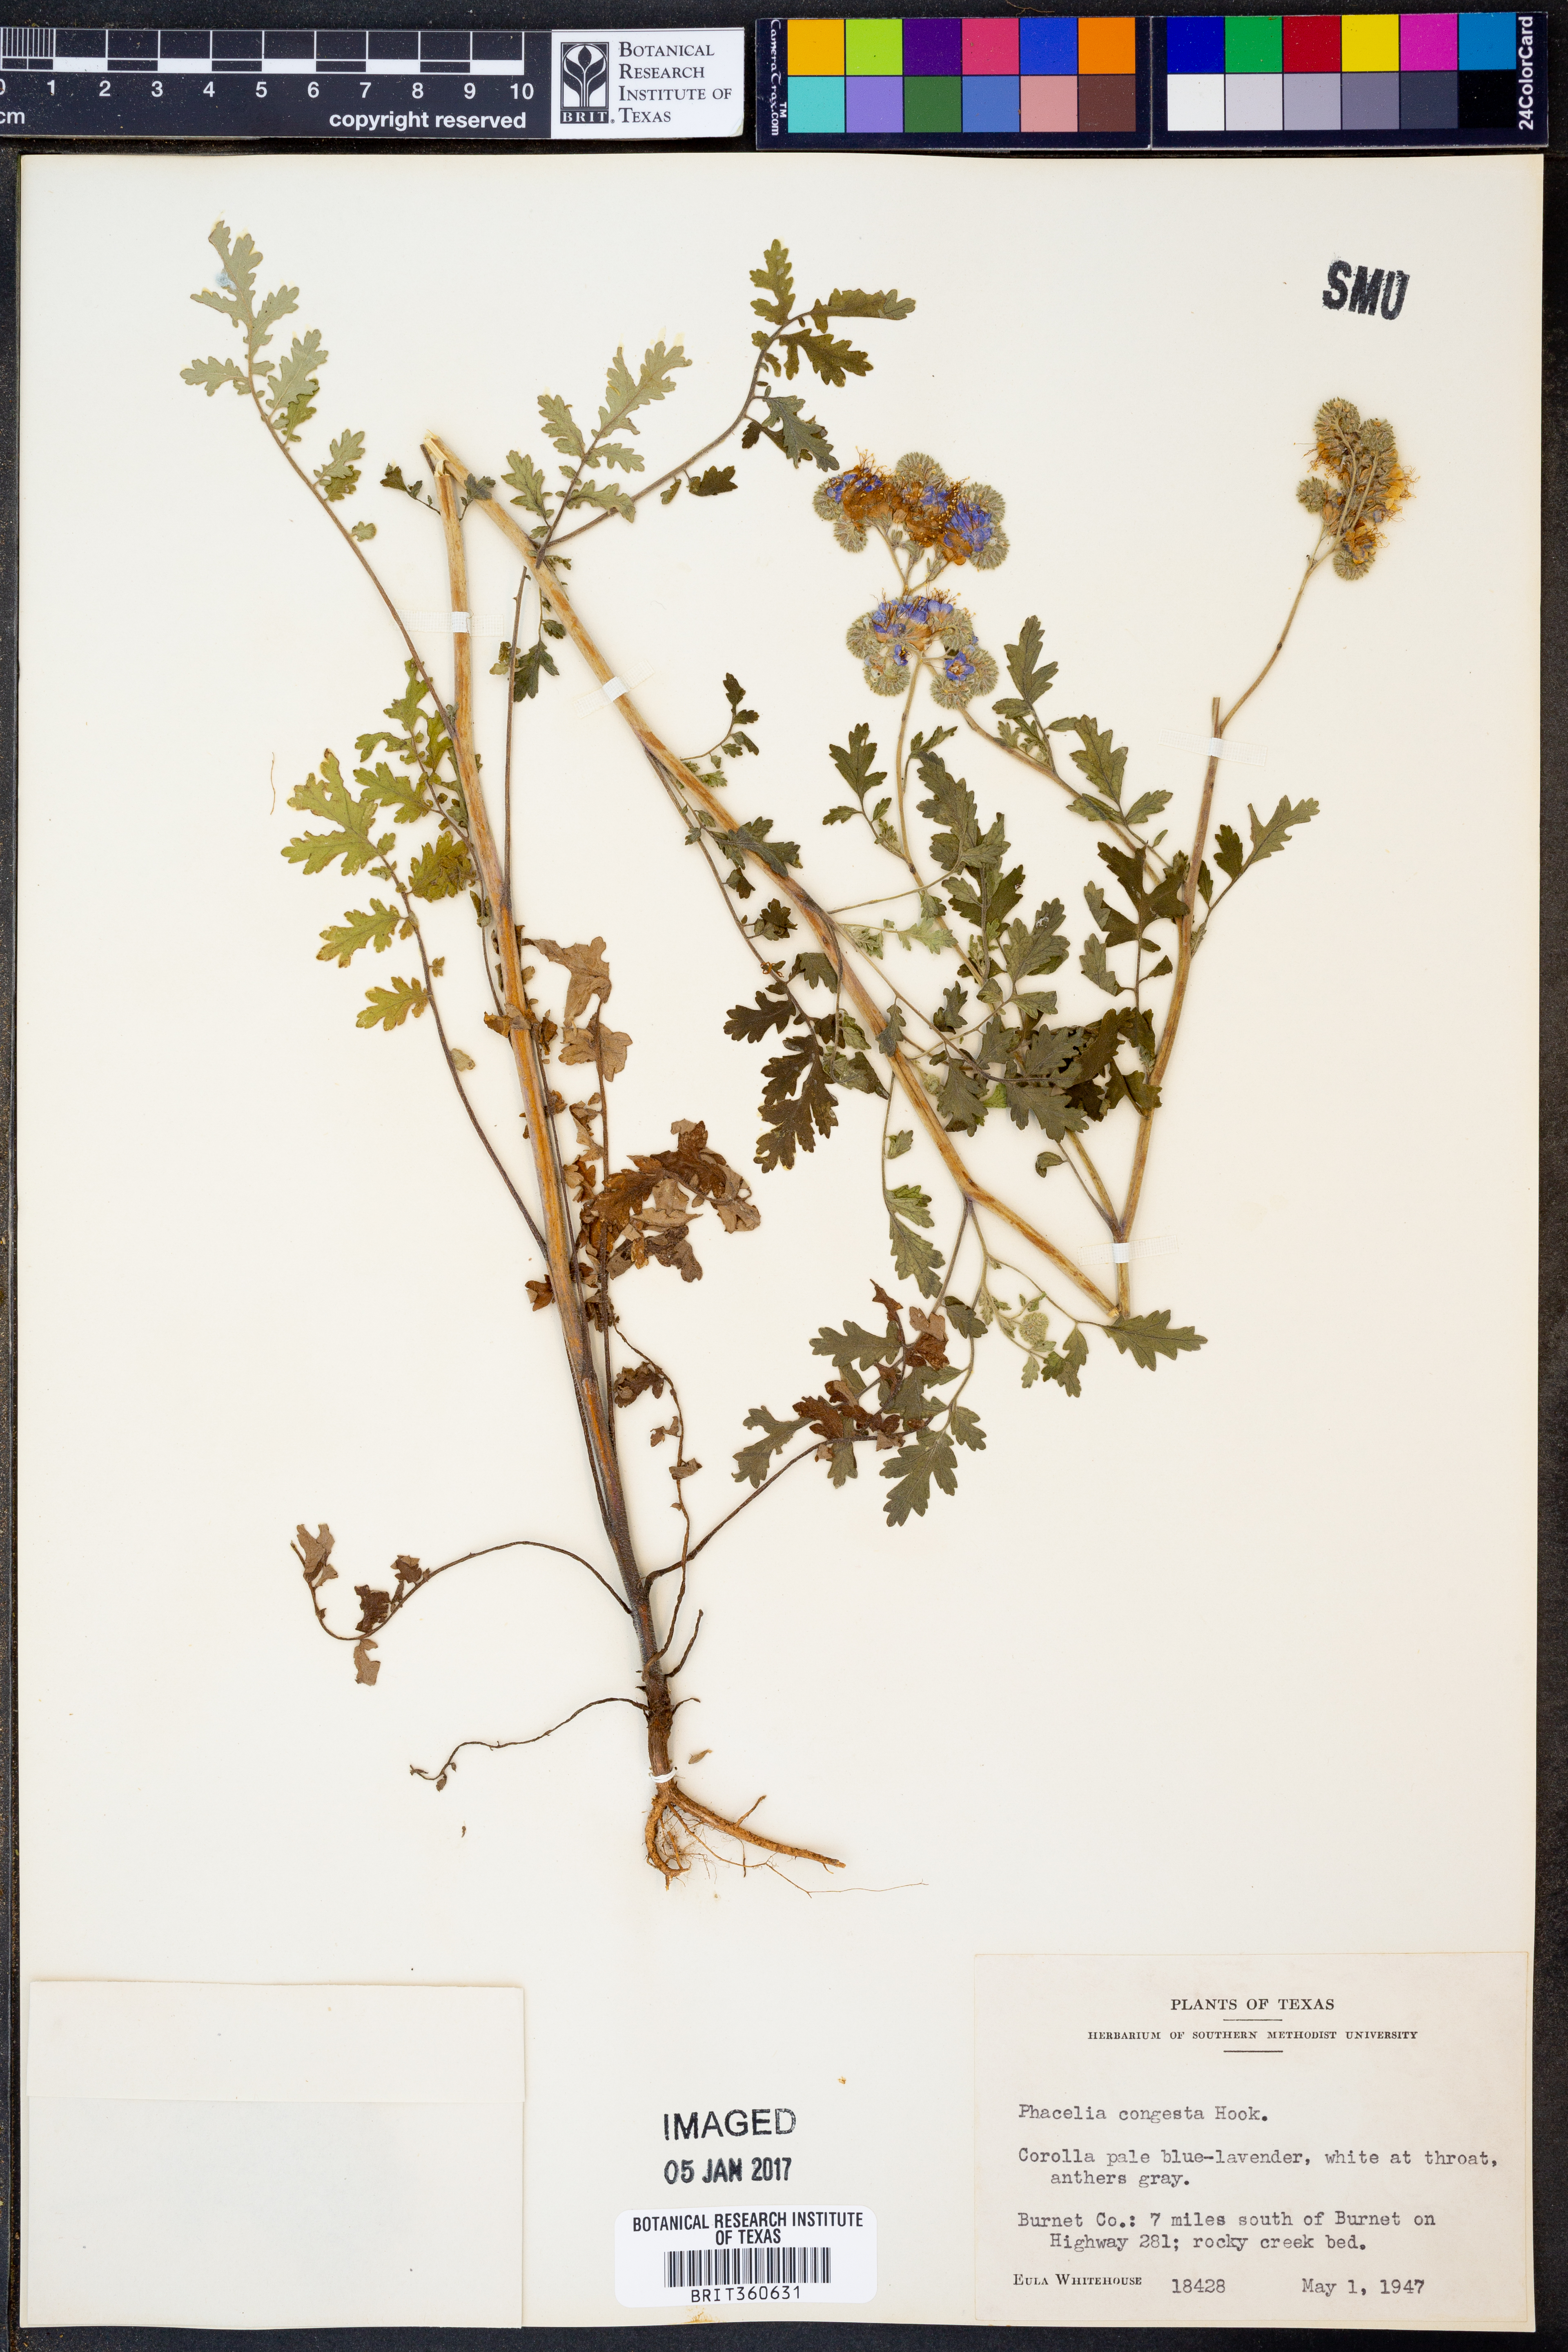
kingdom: Plantae
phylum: Tracheophyta
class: Magnoliopsida
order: Boraginales
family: Hydrophyllaceae
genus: Phacelia
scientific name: Phacelia congesta
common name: Blue curls
